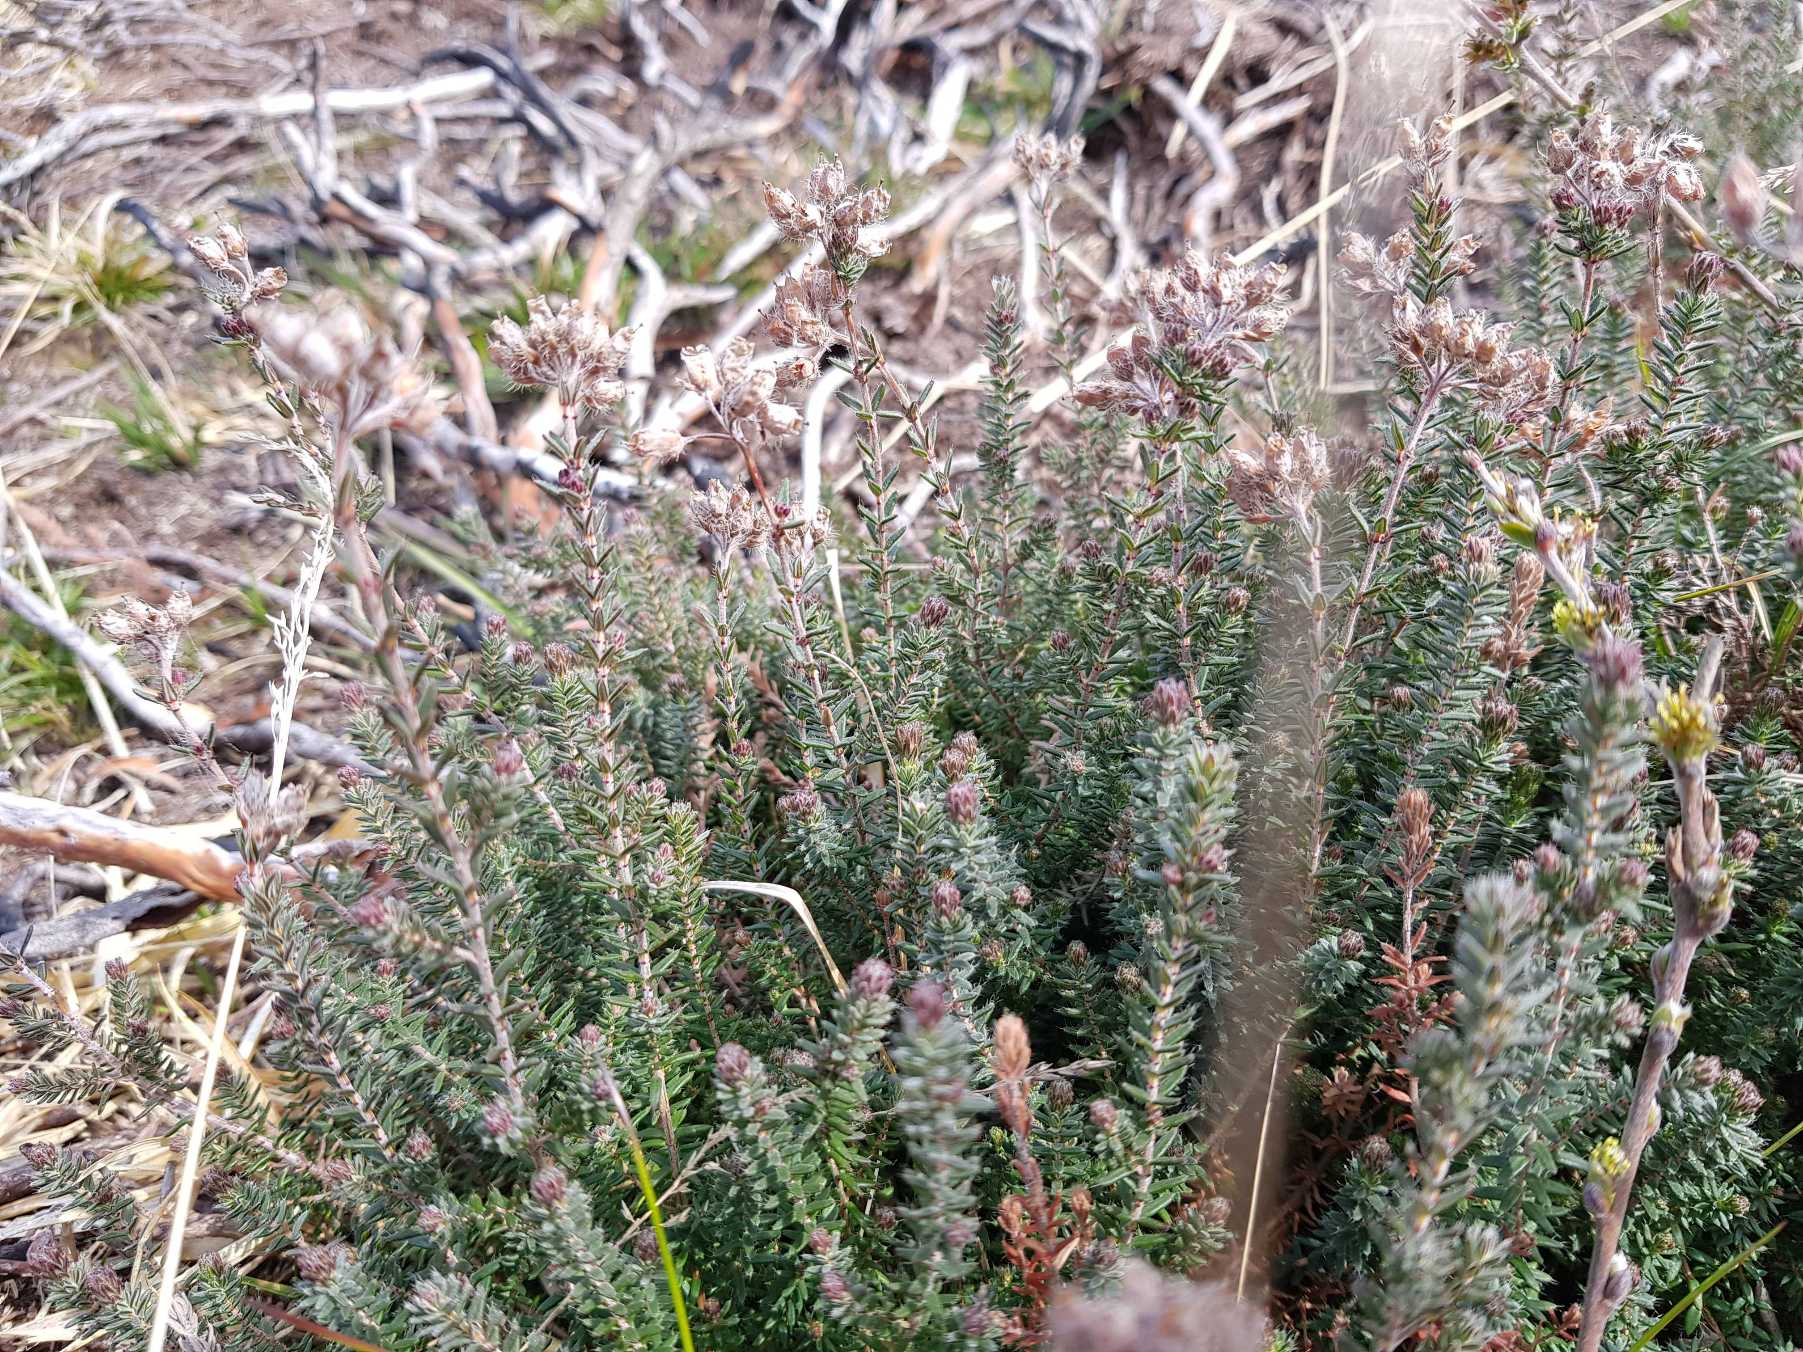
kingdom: Plantae
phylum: Tracheophyta
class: Magnoliopsida
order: Ericales
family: Ericaceae
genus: Erica
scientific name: Erica tetralix
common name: Klokkelyng
